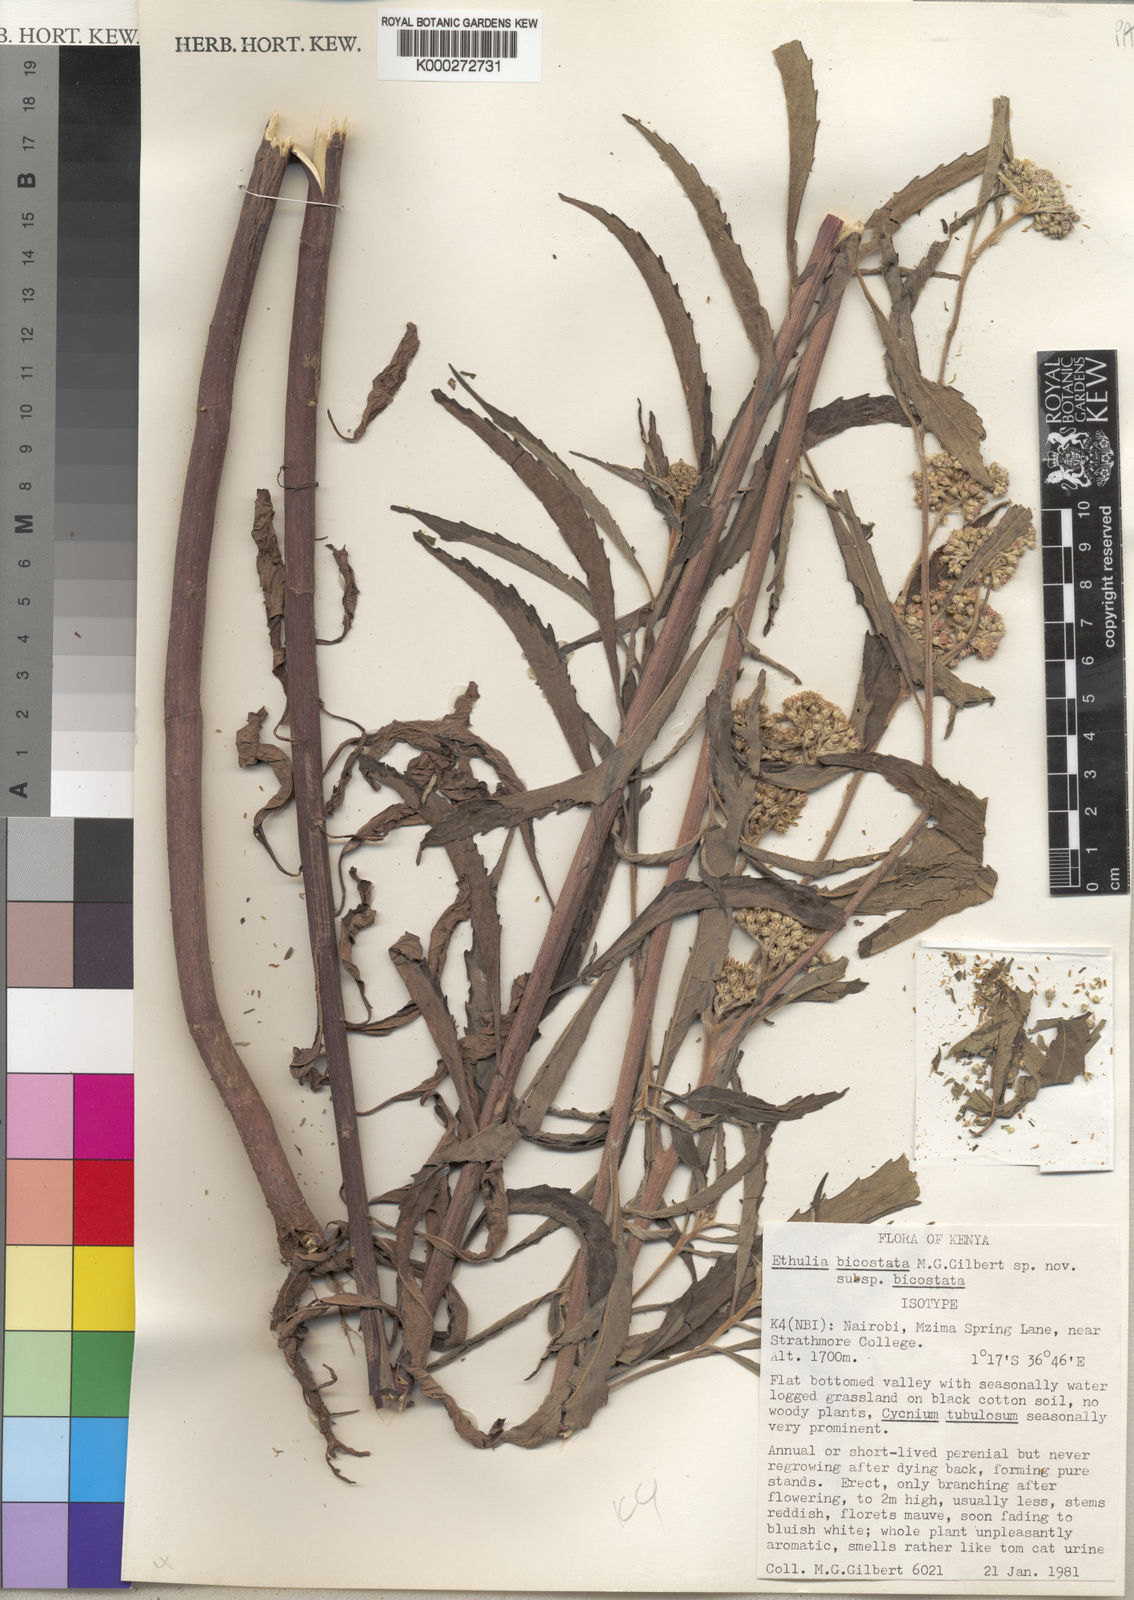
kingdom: Plantae
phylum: Tracheophyta
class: Magnoliopsida
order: Asterales
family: Asteraceae
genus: Ethulia
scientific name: Ethulia bicostata
